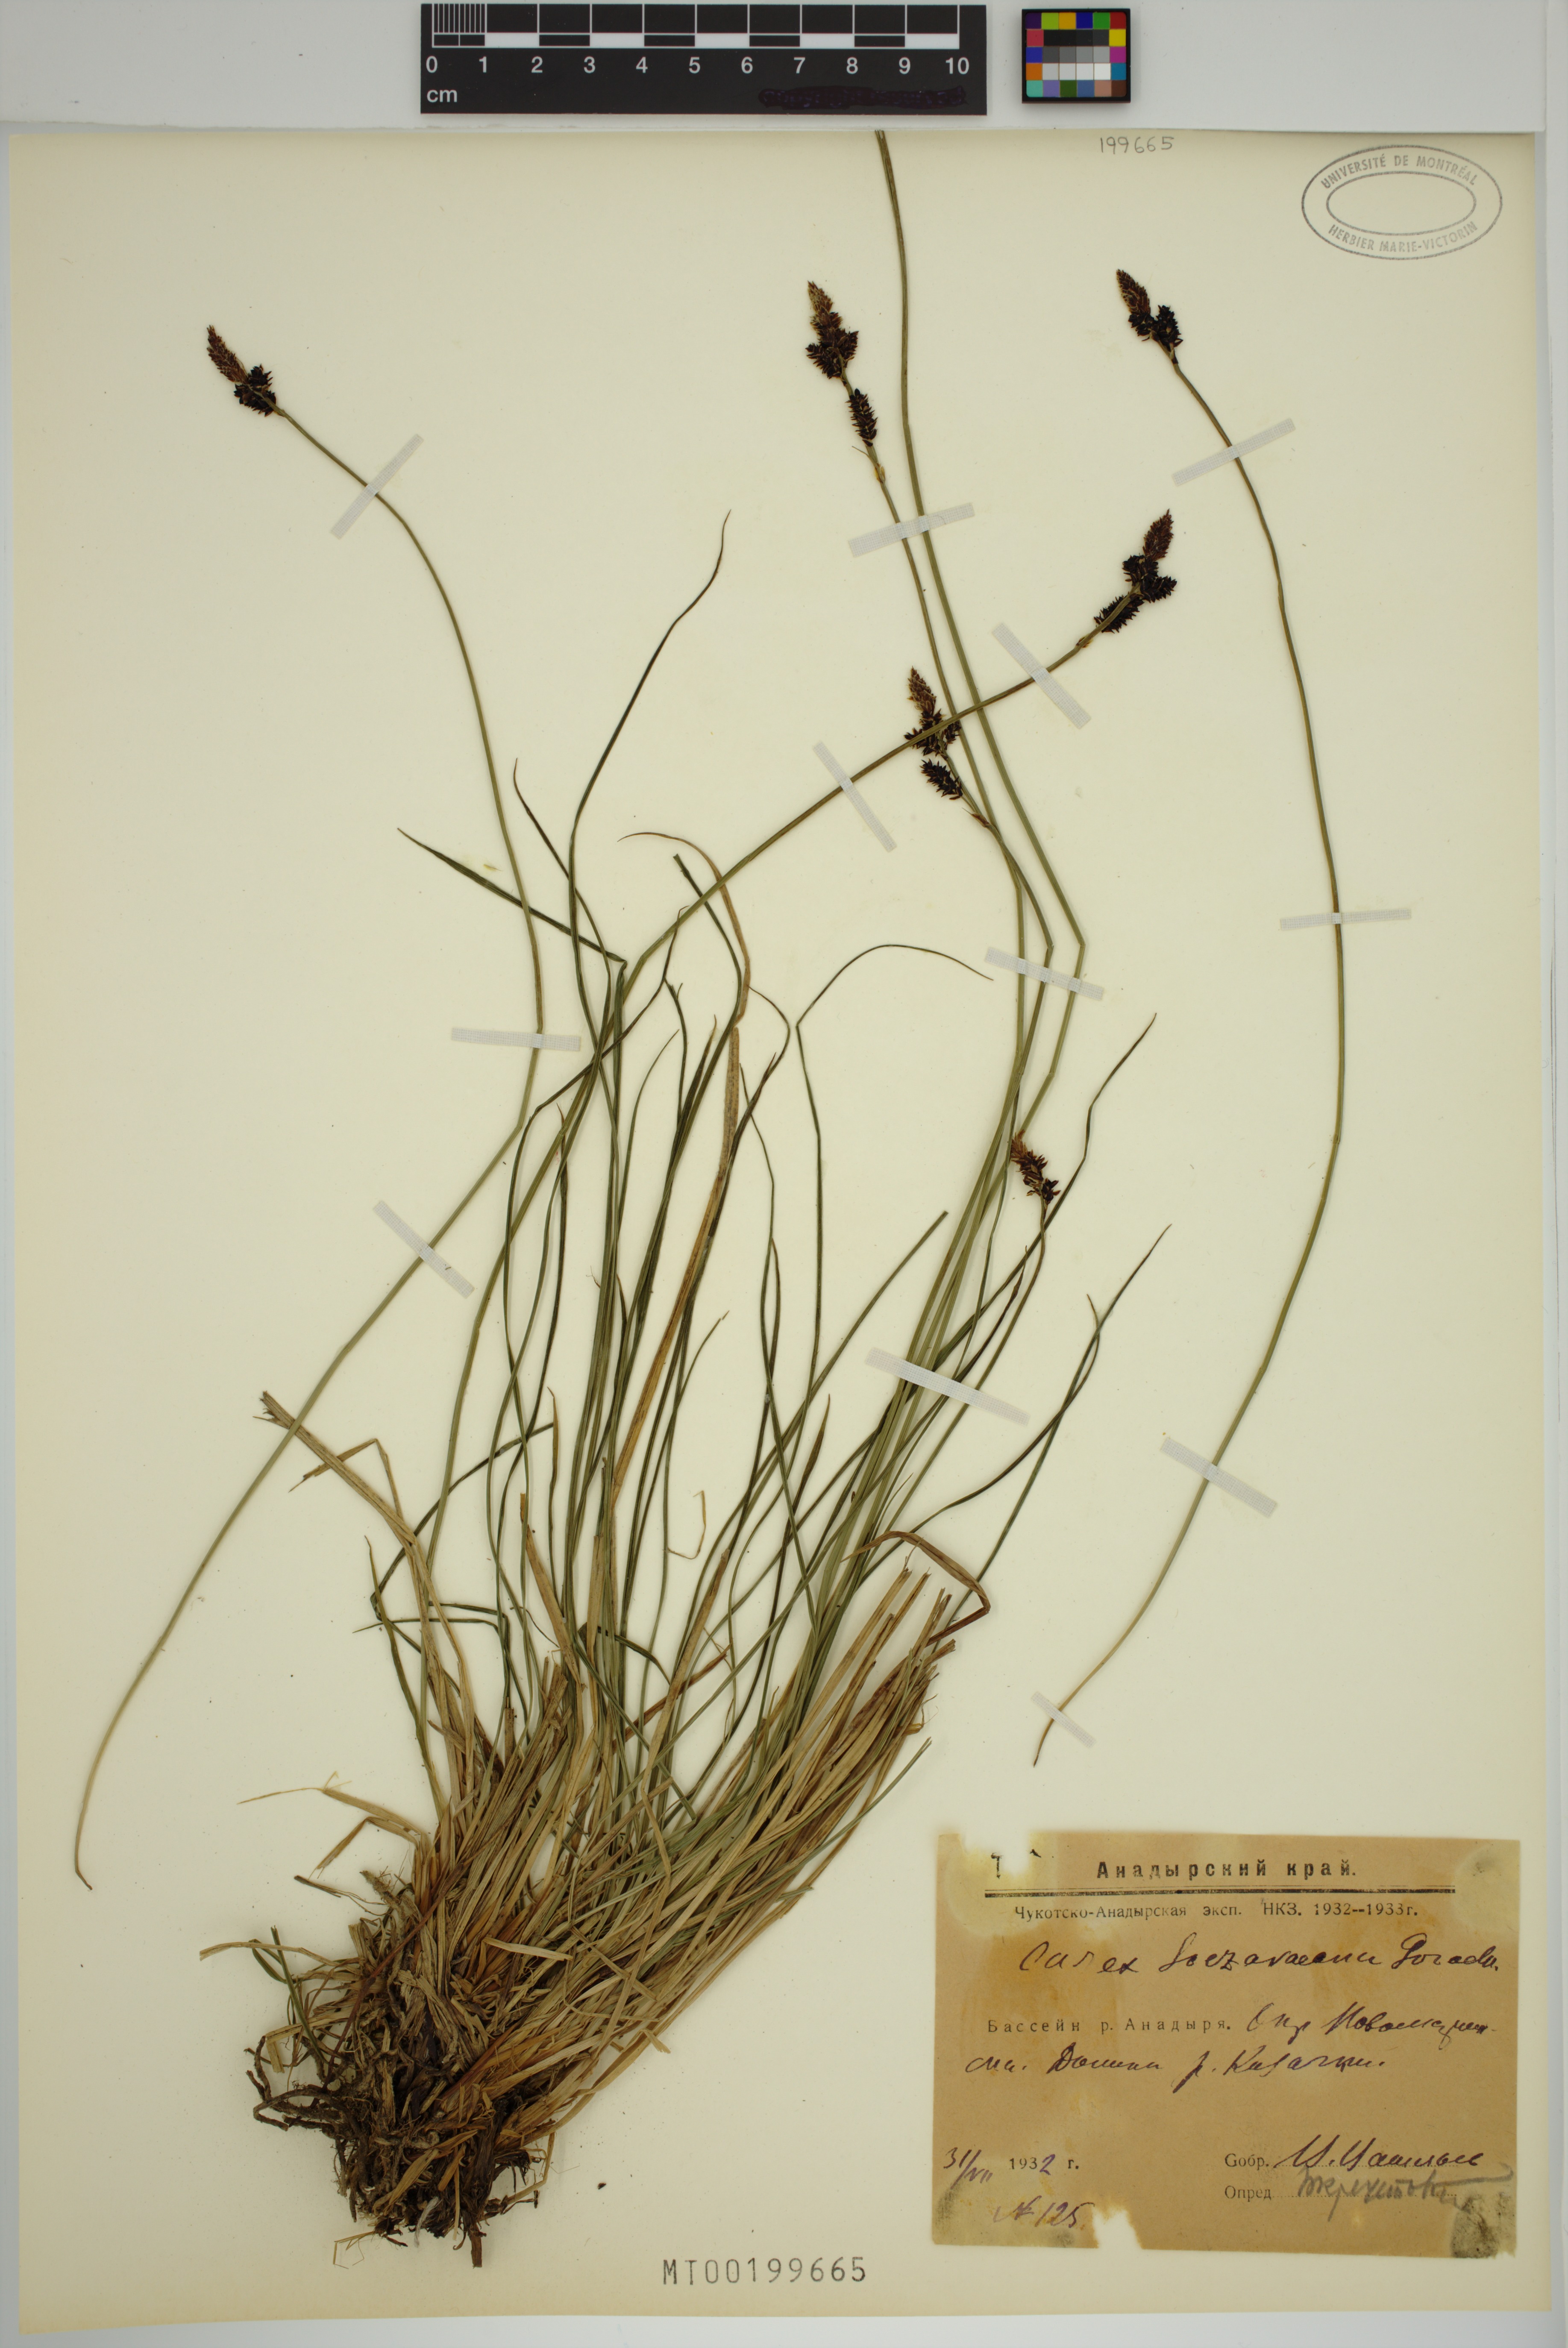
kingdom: Plantae
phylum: Tracheophyta
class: Liliopsida
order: Poales
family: Cyperaceae
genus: Carex
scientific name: Carex
